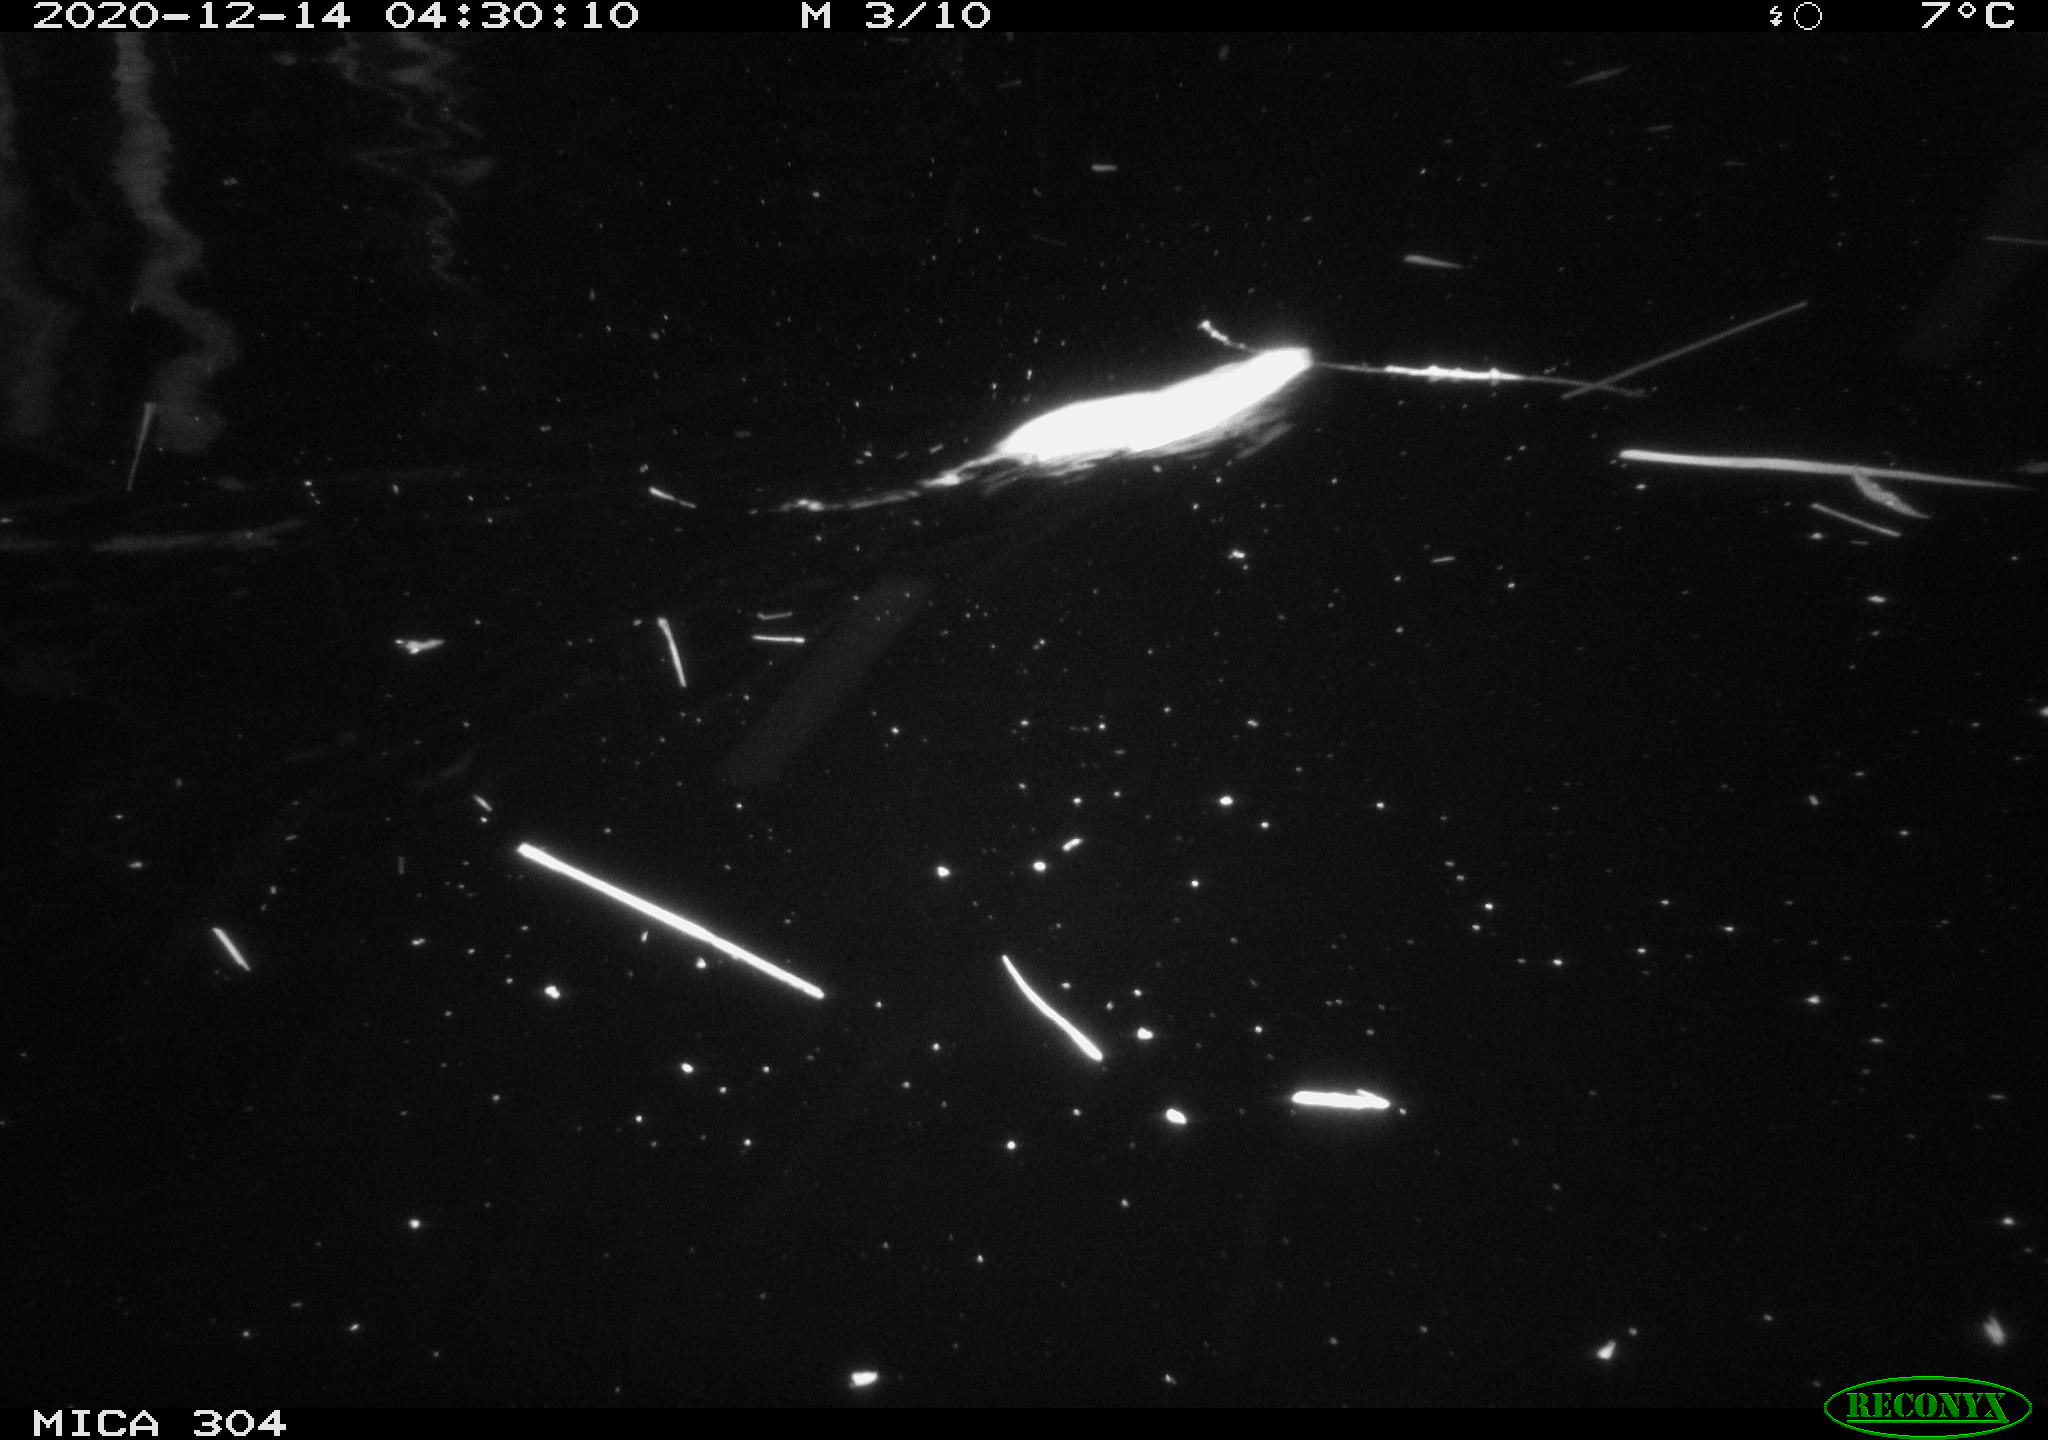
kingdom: Animalia
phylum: Chordata
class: Mammalia
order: Rodentia
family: Muridae
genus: Rattus
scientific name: Rattus norvegicus
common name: Brown rat
